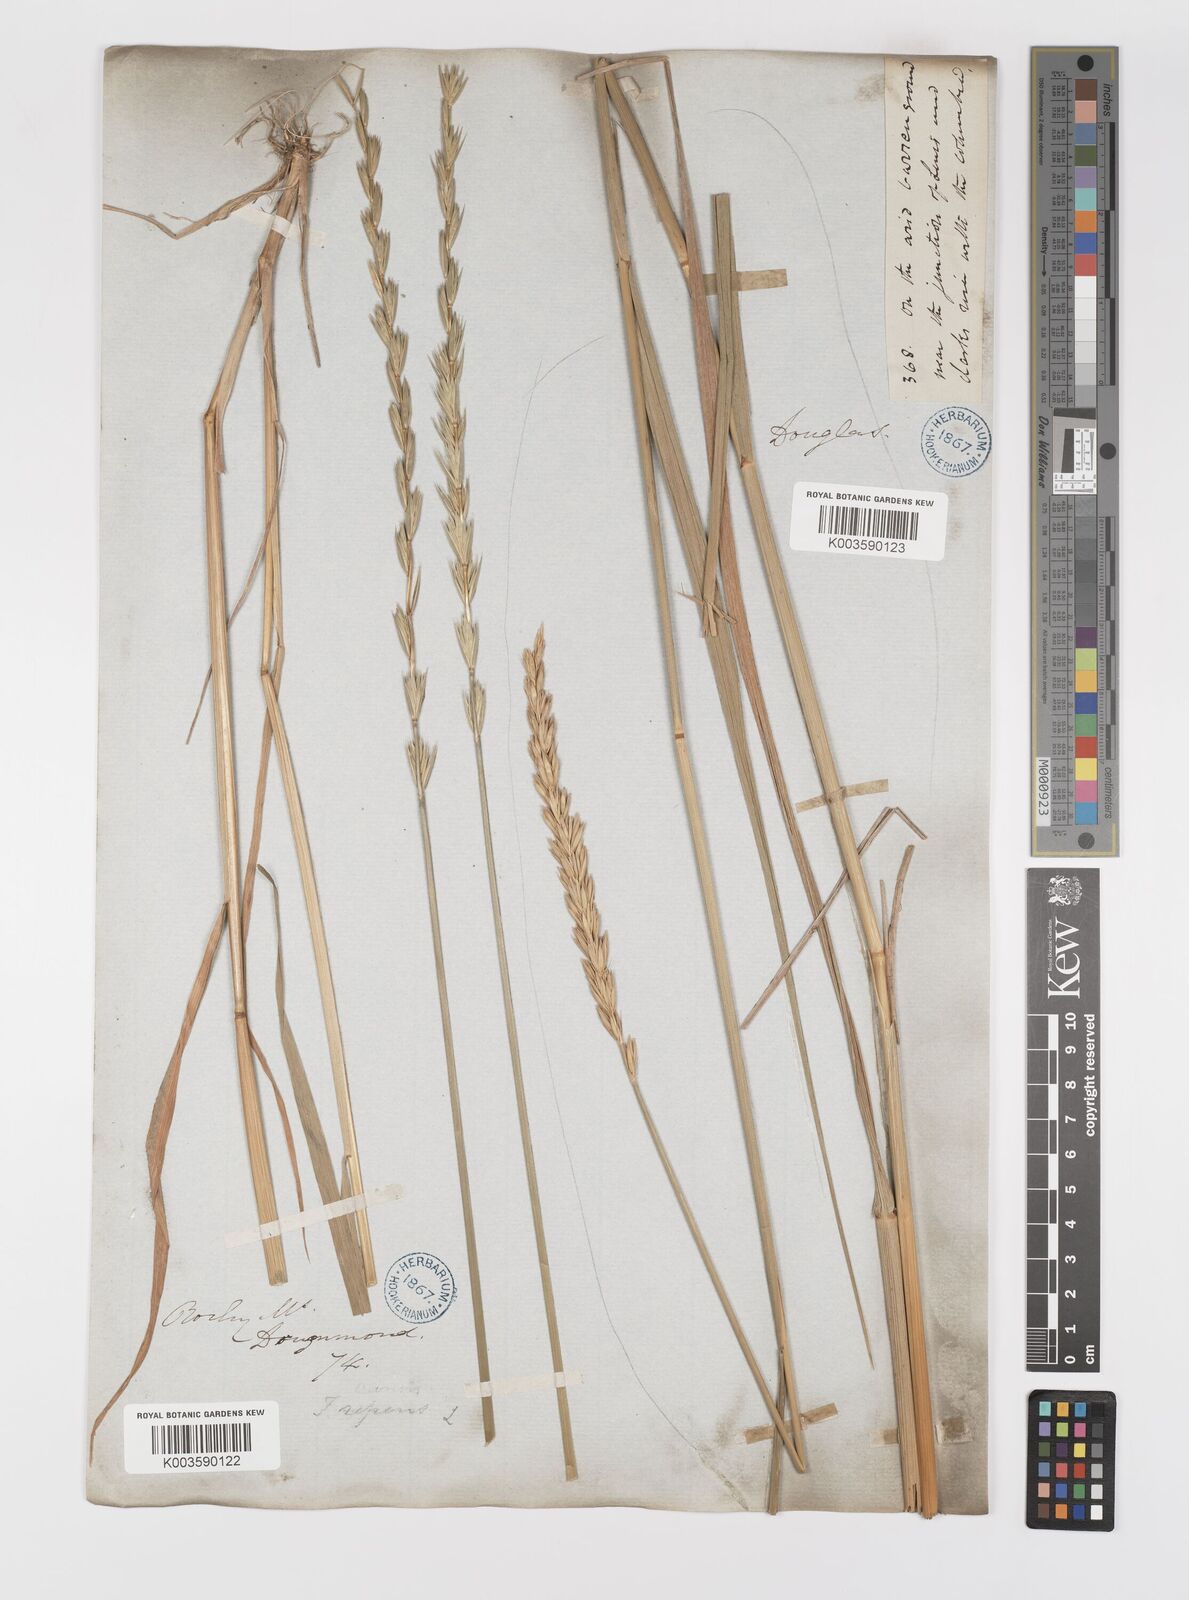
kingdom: Plantae
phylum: Tracheophyta
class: Liliopsida
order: Poales
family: Poaceae
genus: Elymus
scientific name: Elymus repens
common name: Quackgrass
